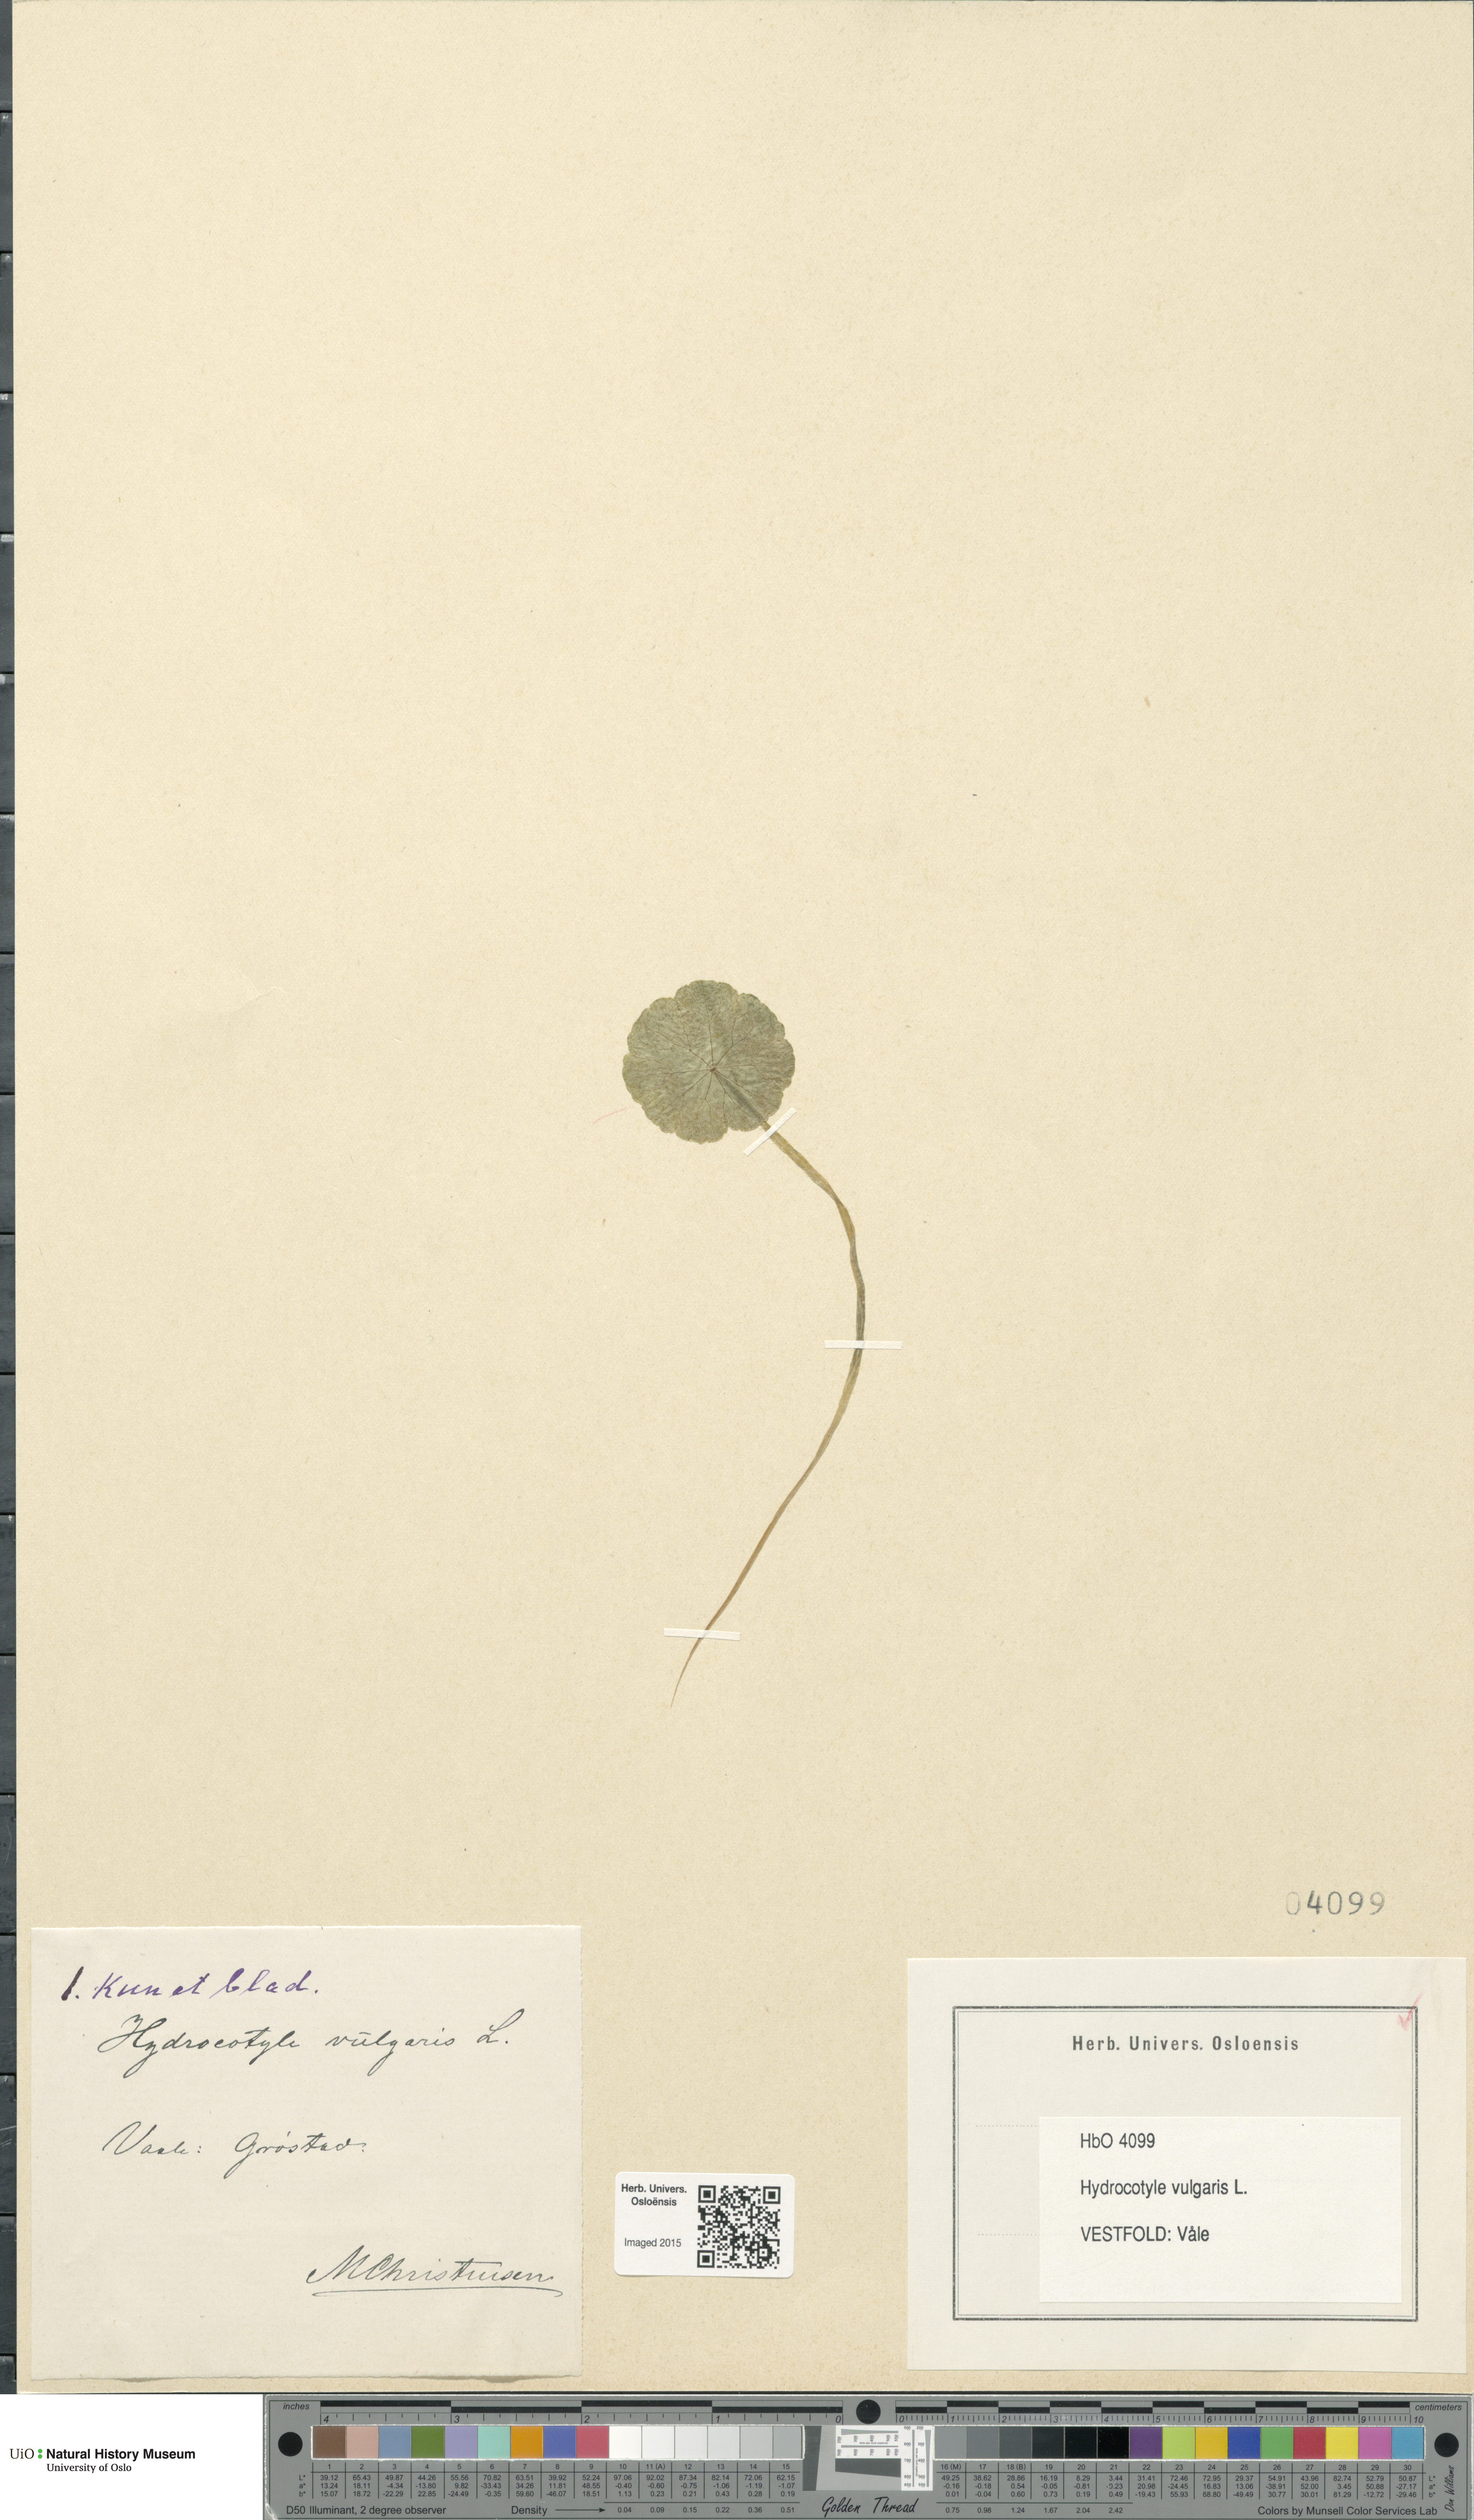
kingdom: Plantae
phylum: Tracheophyta
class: Magnoliopsida
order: Apiales
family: Araliaceae
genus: Hydrocotyle
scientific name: Hydrocotyle vulgaris
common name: Marsh pennywort
